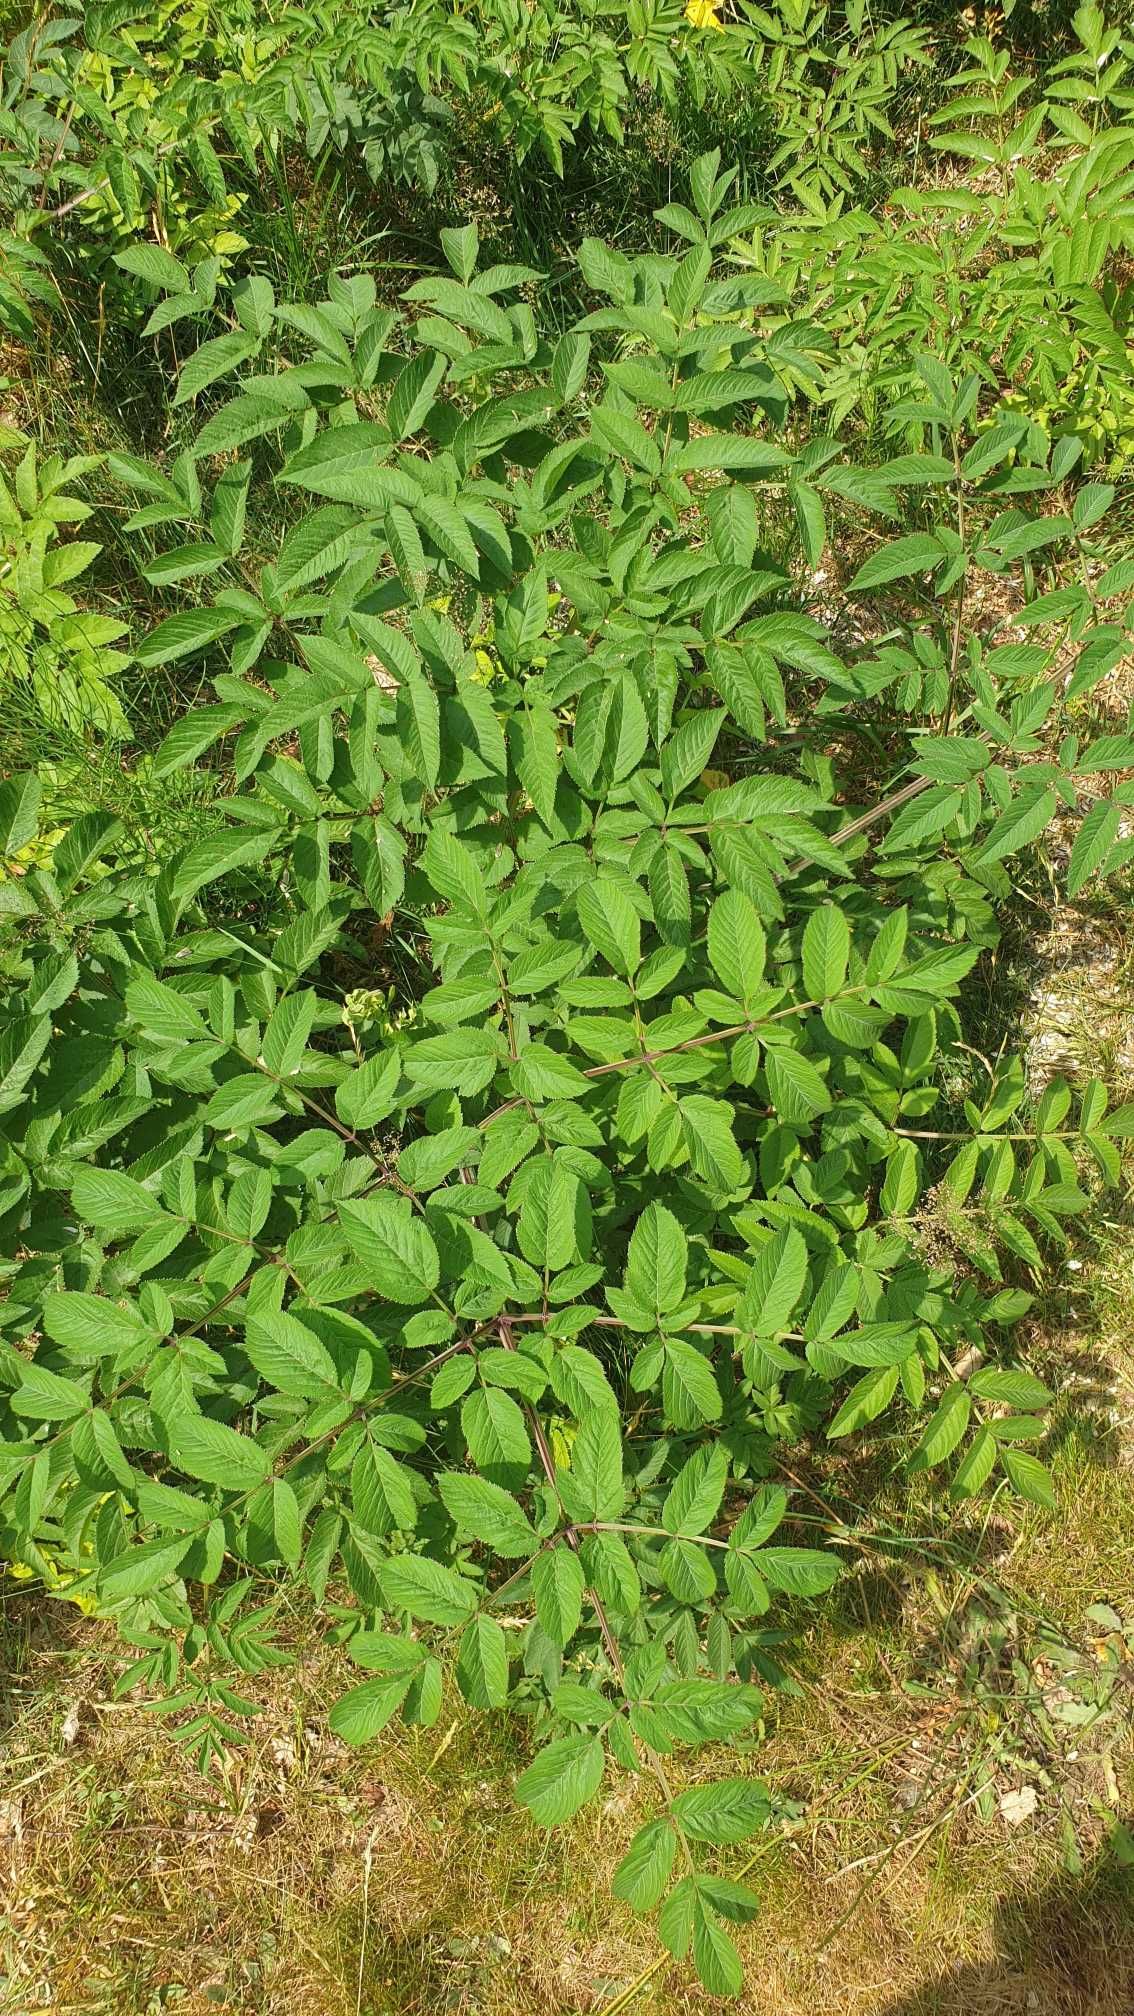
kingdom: Plantae
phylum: Tracheophyta
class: Magnoliopsida
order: Apiales
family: Apiaceae
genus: Angelica
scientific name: Angelica sylvestris
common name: Angelik
